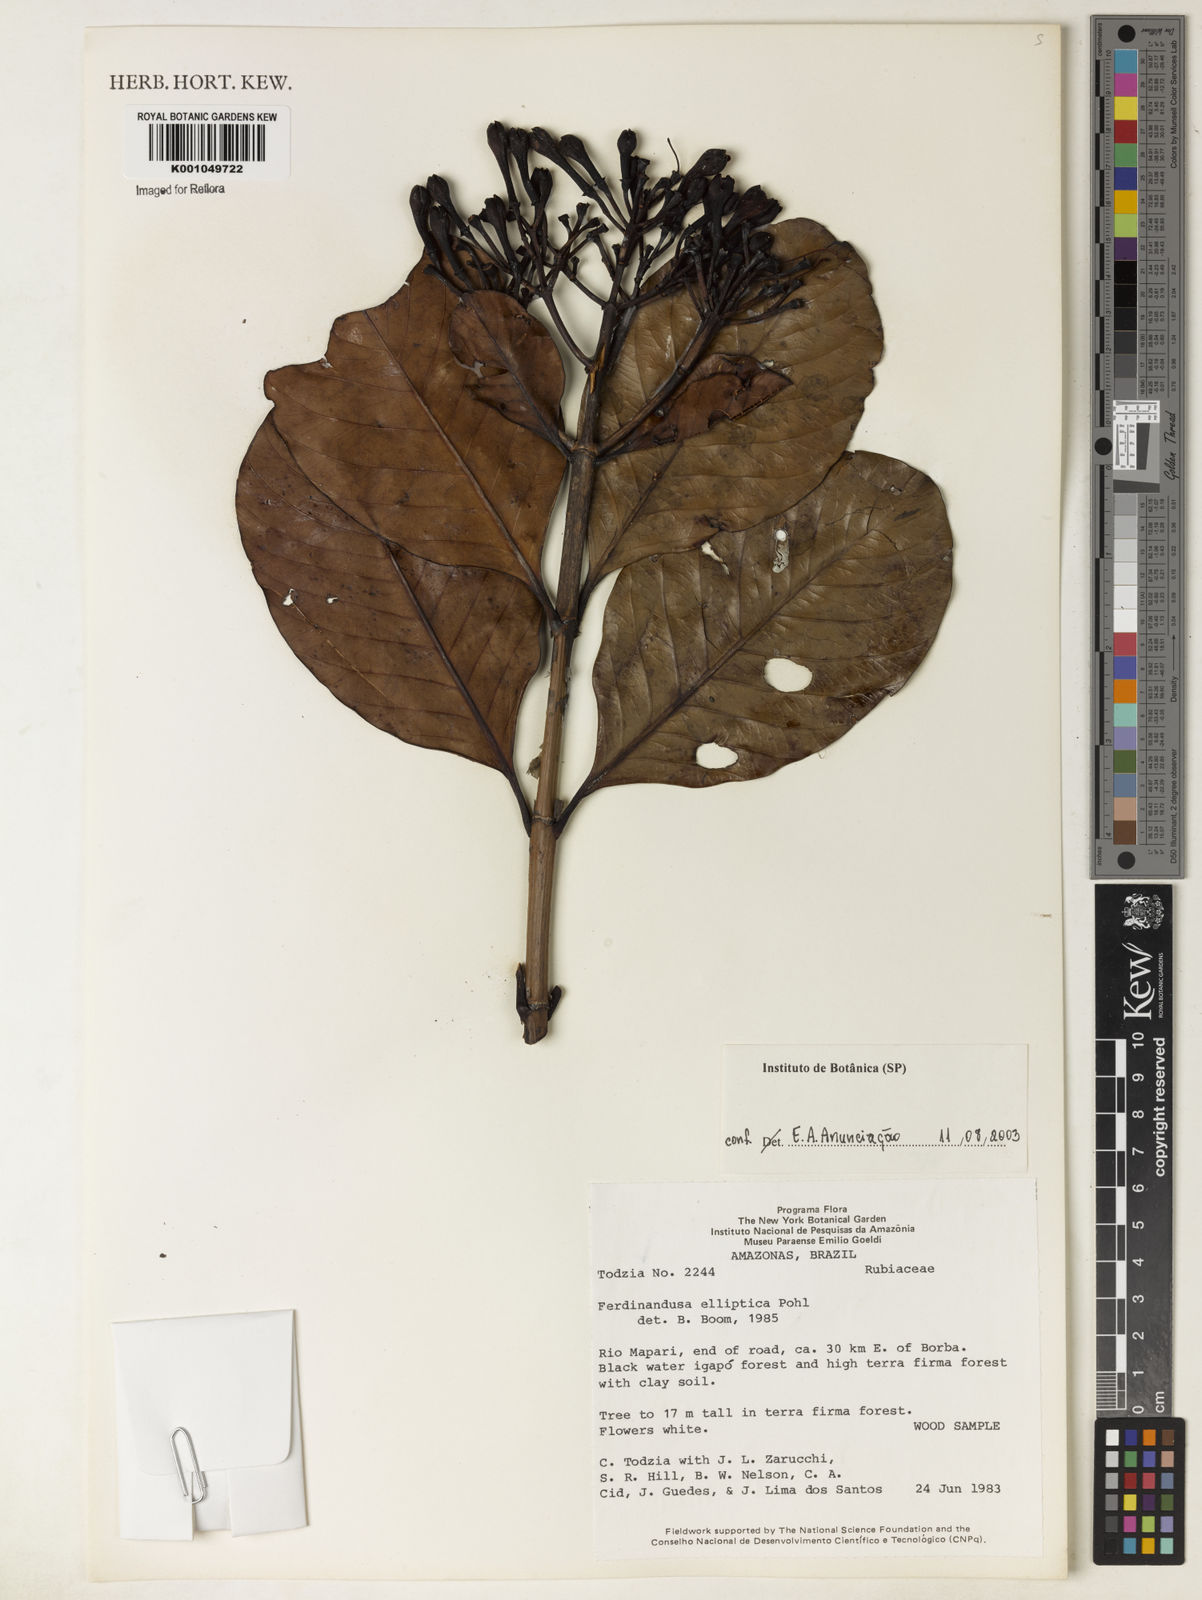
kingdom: Plantae
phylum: Tracheophyta
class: Magnoliopsida
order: Gentianales
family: Rubiaceae
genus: Ferdinandusa
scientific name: Ferdinandusa elliptica
